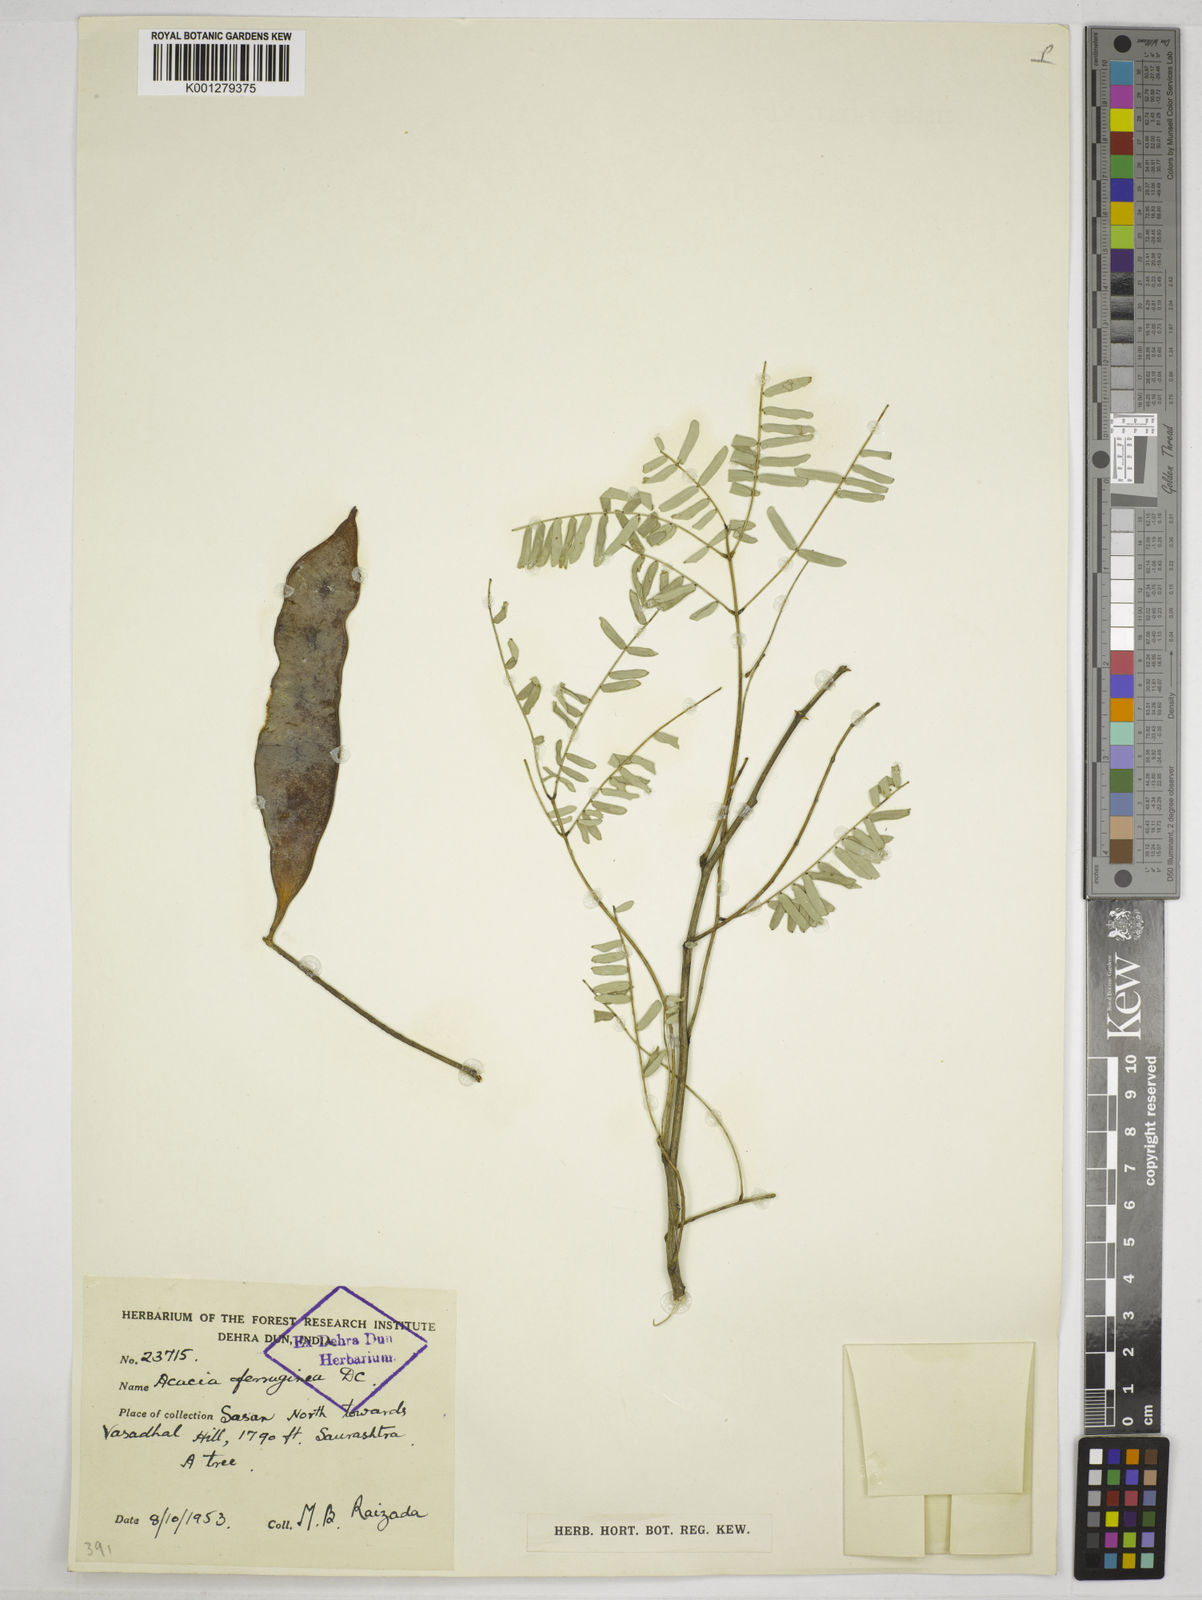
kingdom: Plantae
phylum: Tracheophyta
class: Magnoliopsida
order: Fabales
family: Fabaceae
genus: Senegalia
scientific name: Senegalia ferruginea
